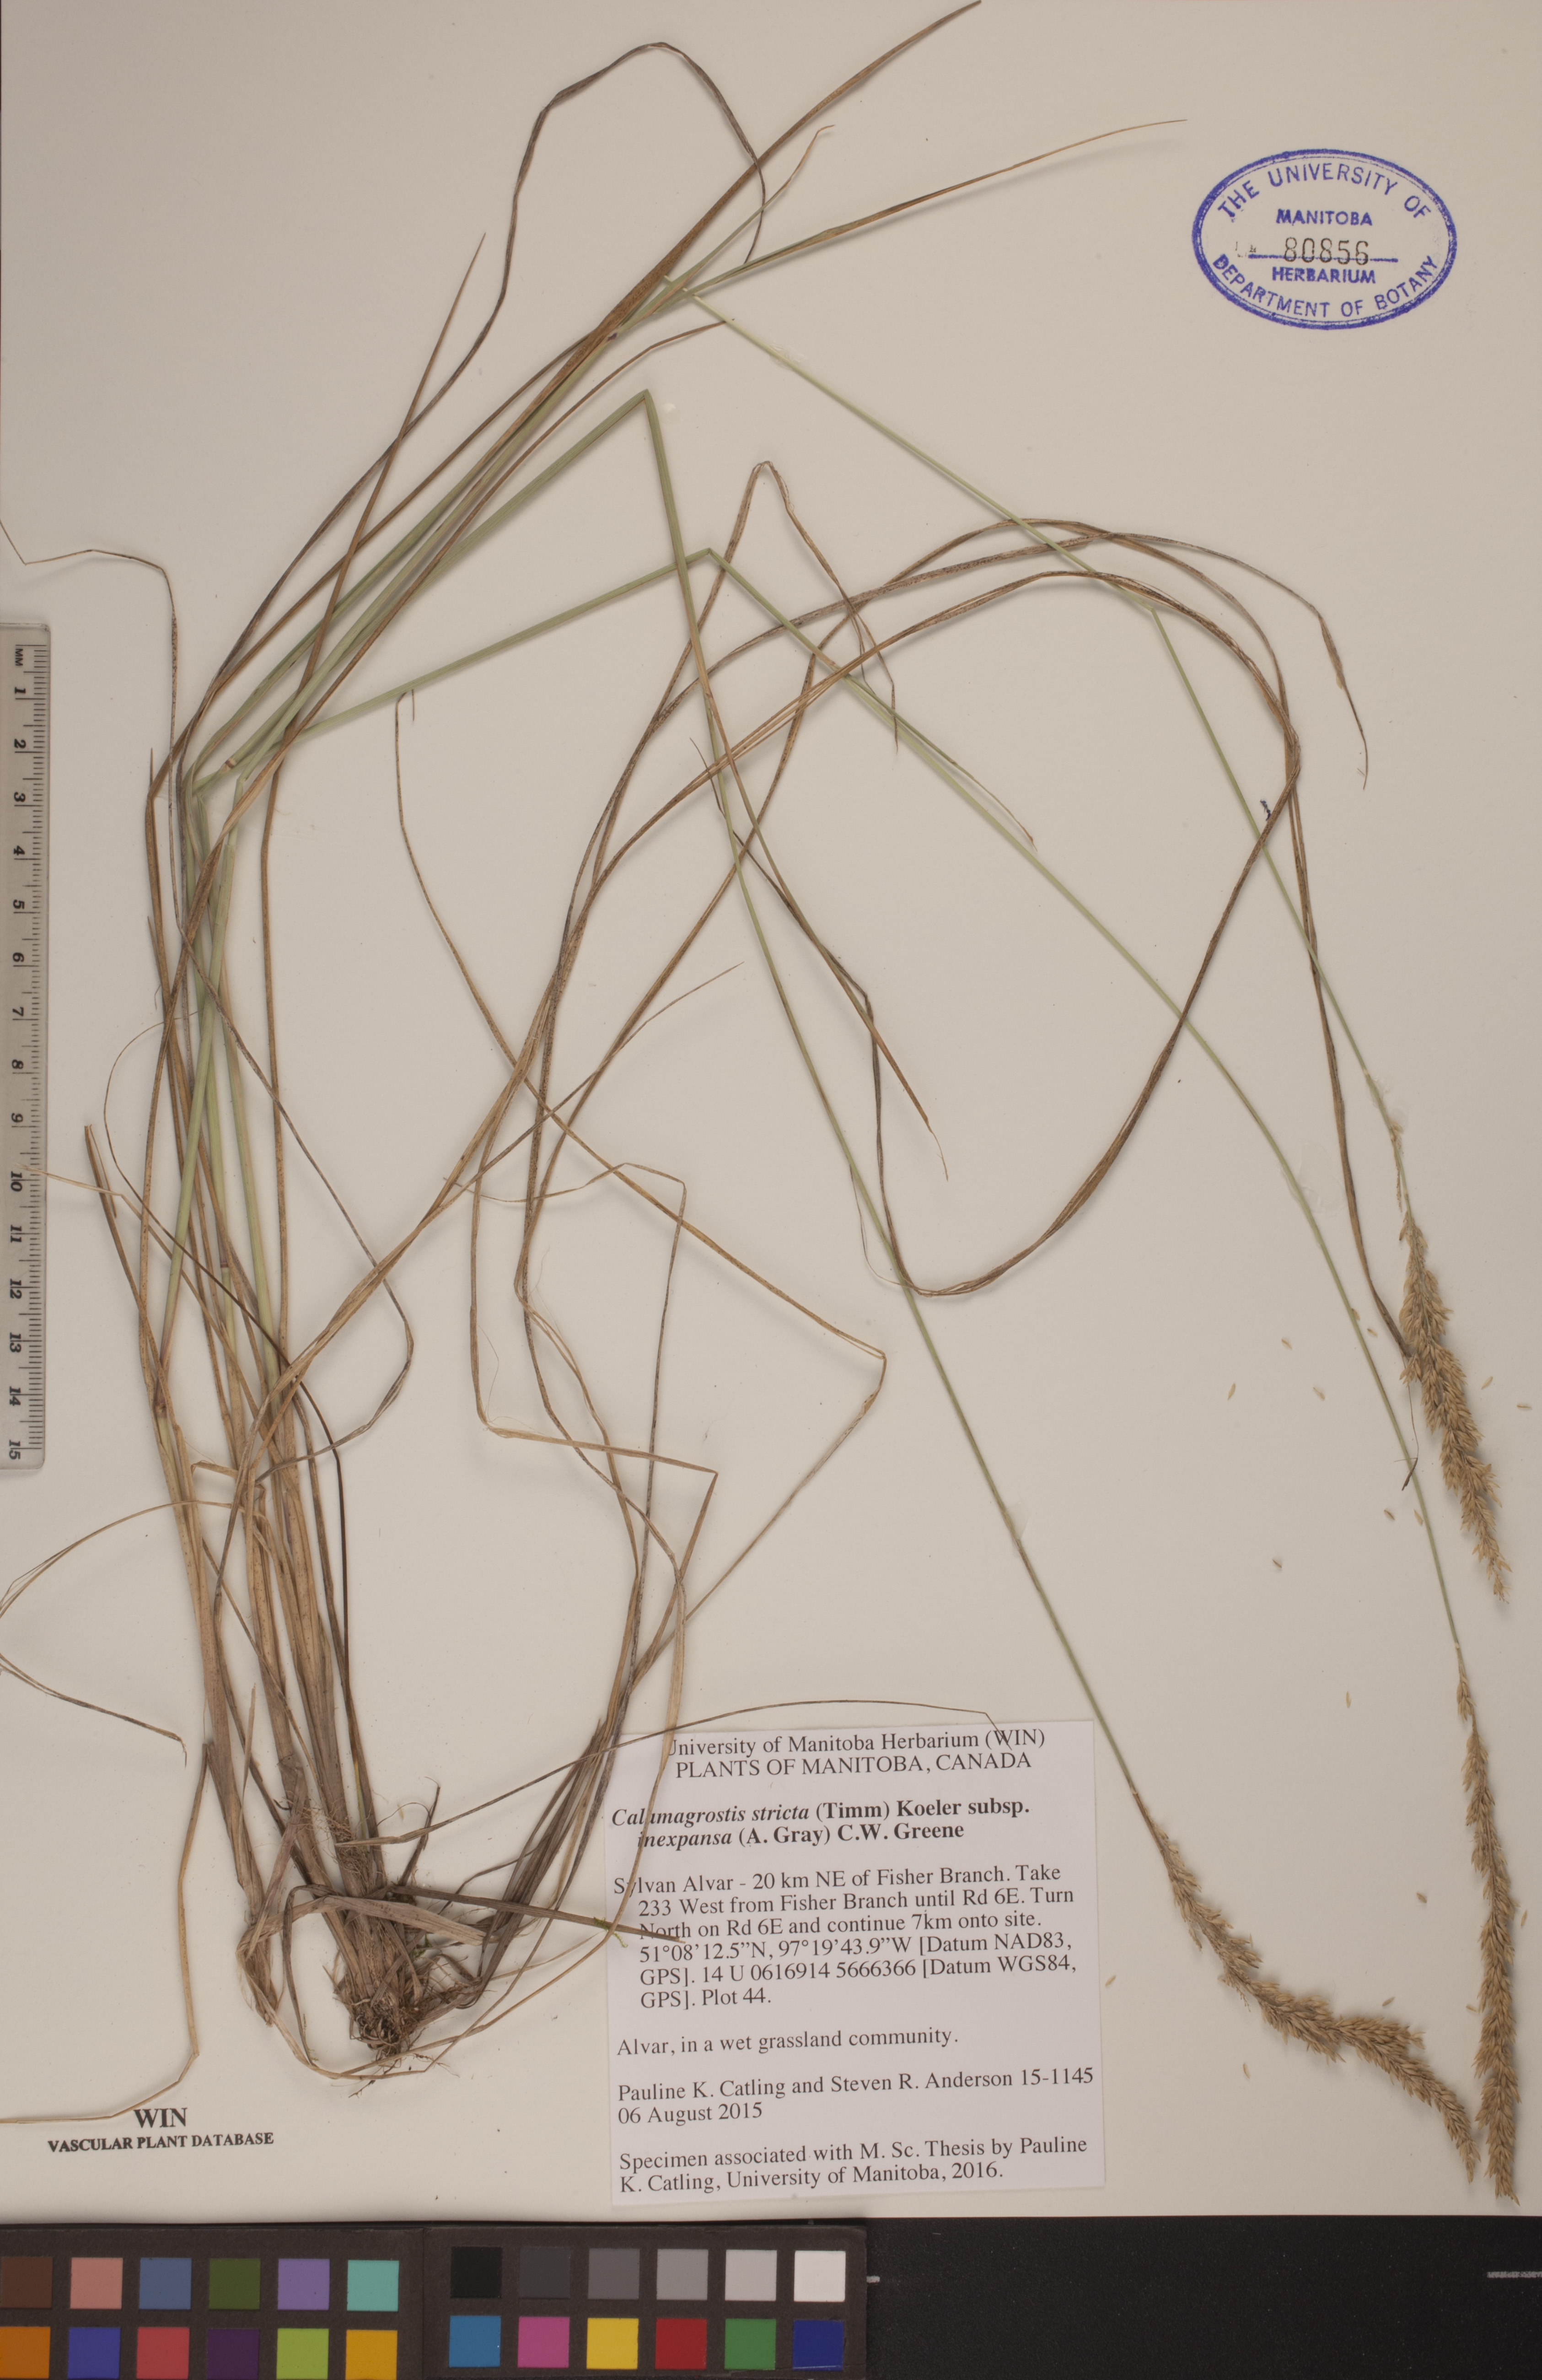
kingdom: Plantae
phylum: Tracheophyta
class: Liliopsida
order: Poales
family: Poaceae
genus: Calamagrostis
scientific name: Calamagrostis inexpansa
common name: Northern reedgrass
